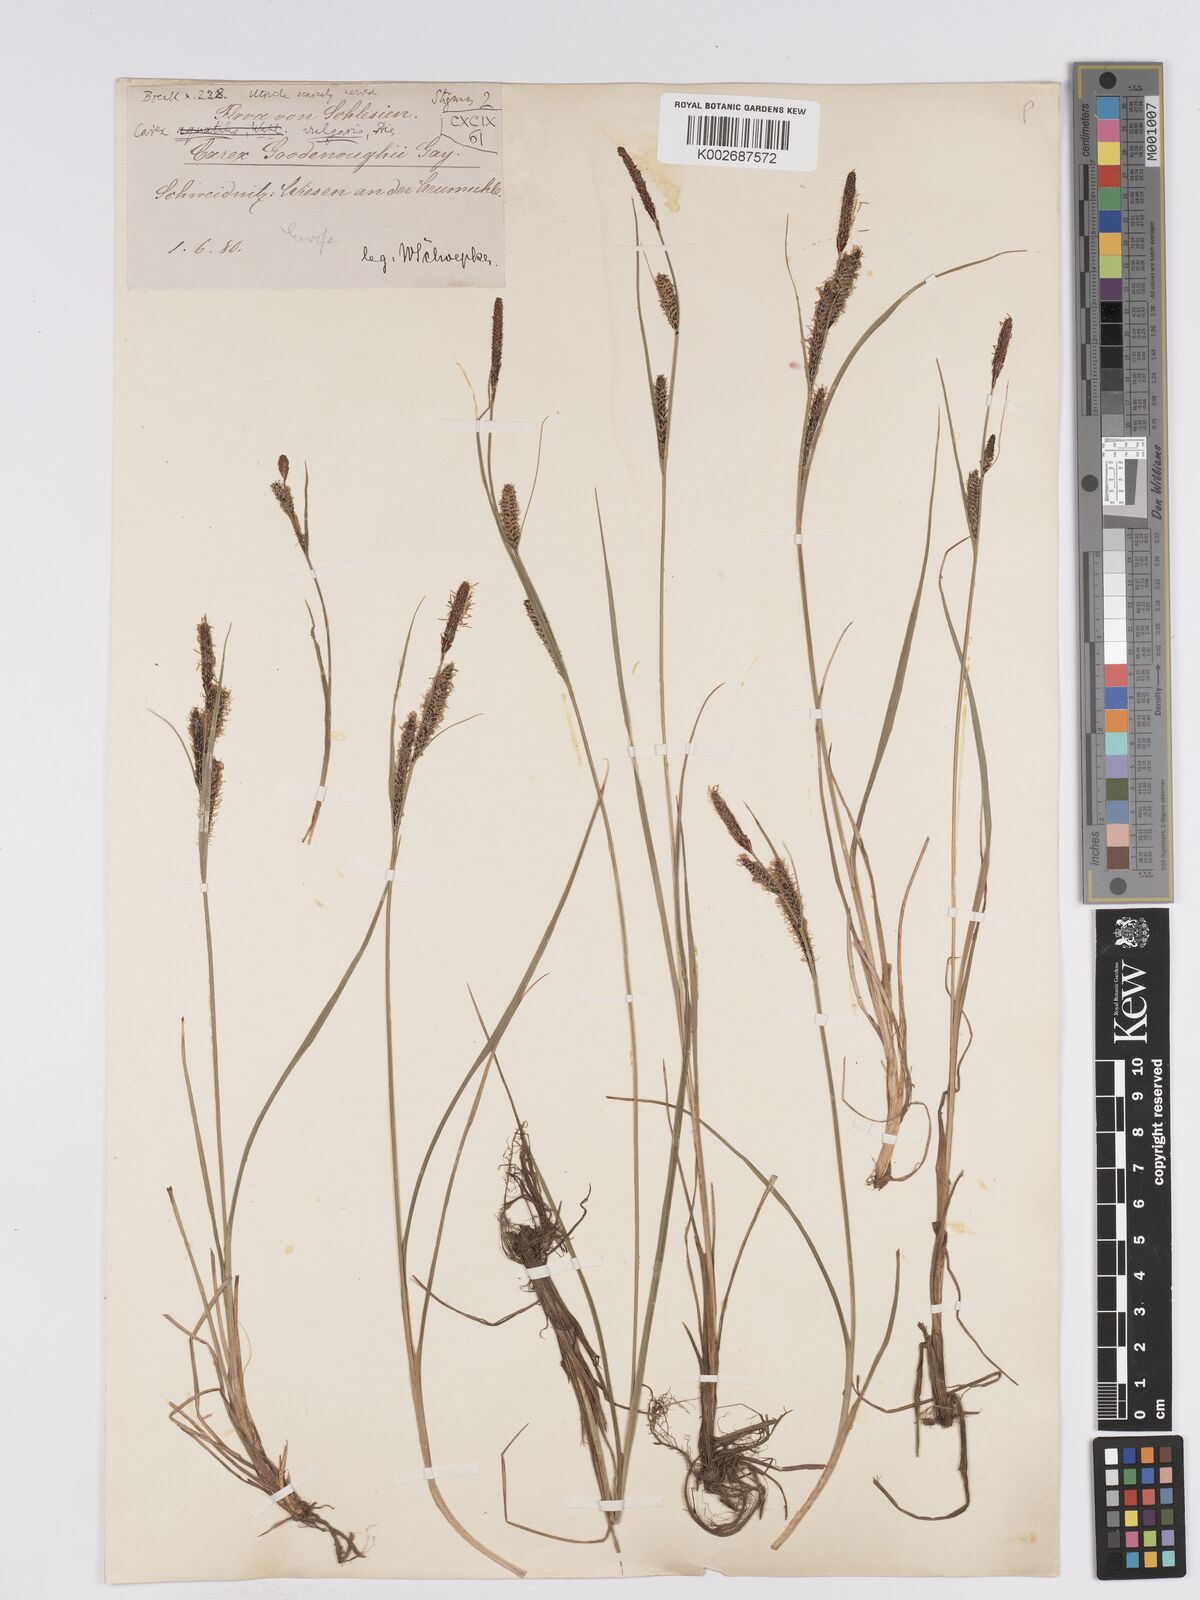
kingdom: Plantae
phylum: Tracheophyta
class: Liliopsida
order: Poales
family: Cyperaceae
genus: Carex
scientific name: Carex nigra
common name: Common sedge
